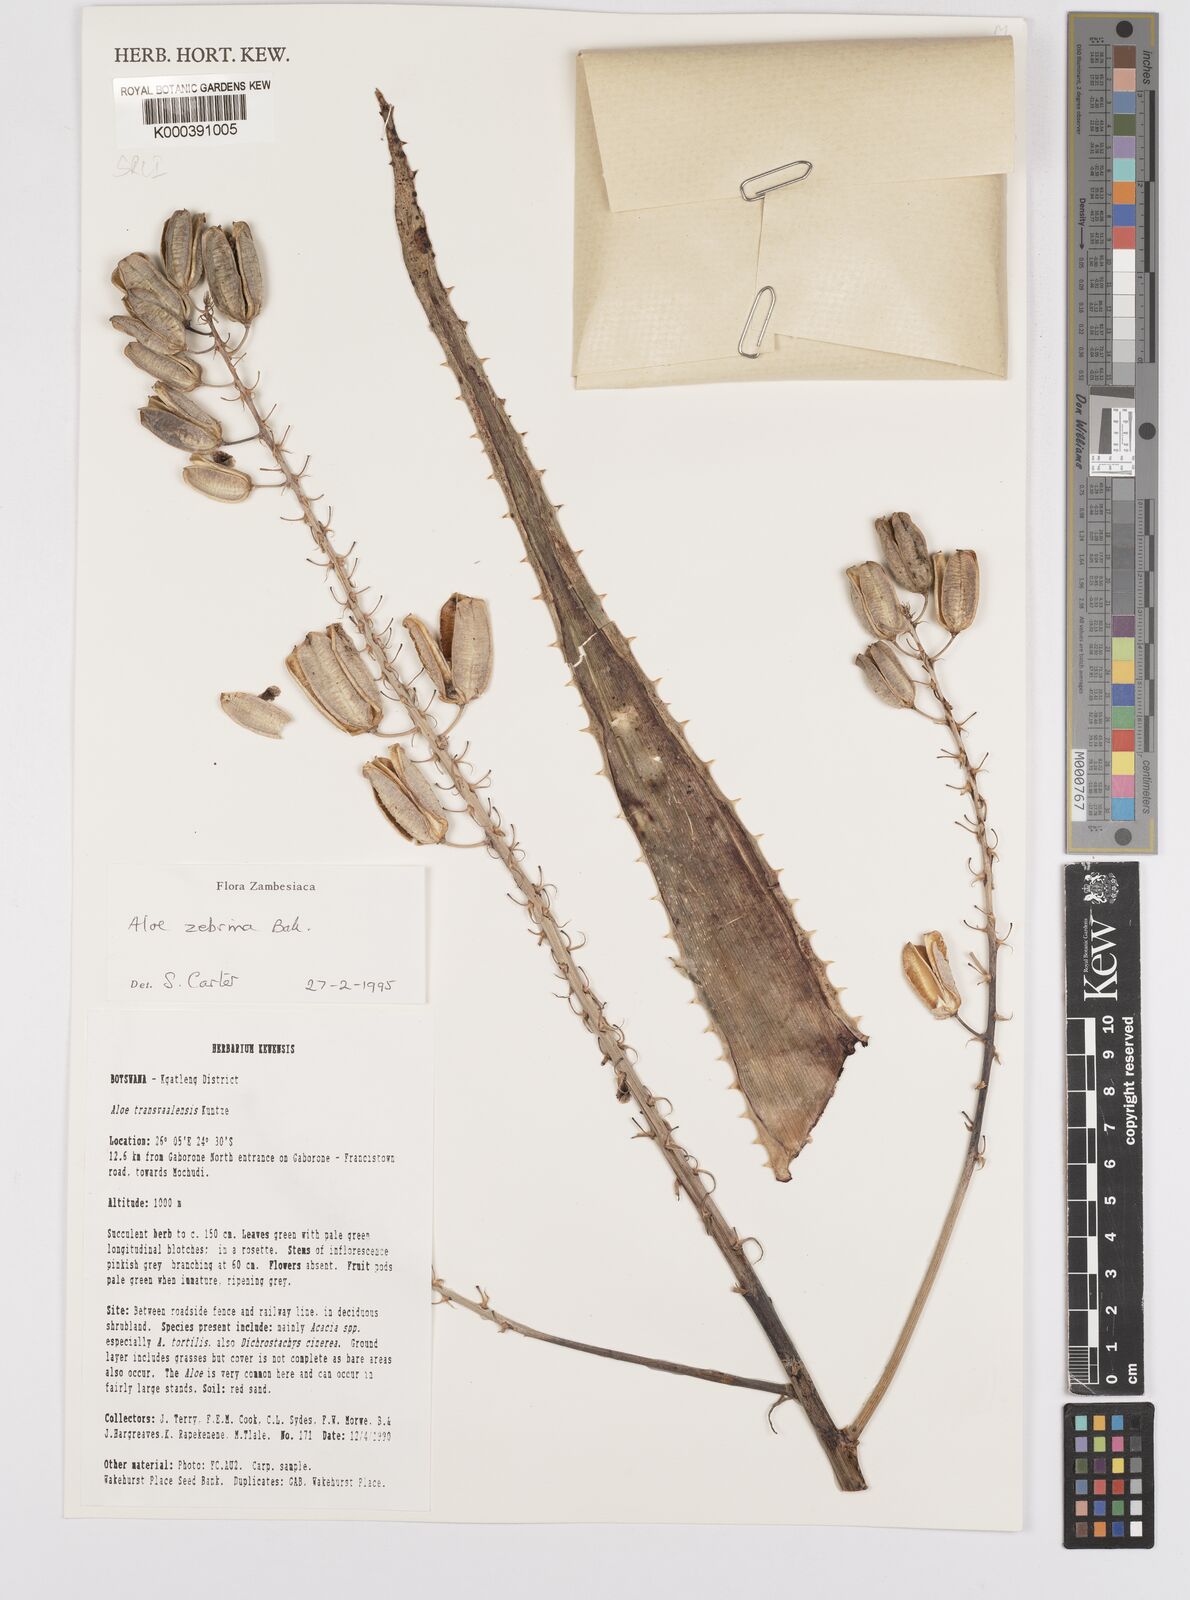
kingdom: Plantae
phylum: Tracheophyta
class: Liliopsida
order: Asparagales
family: Asphodelaceae
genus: Aloe
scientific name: Aloe zebrina
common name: Zebra-leaf aloe
